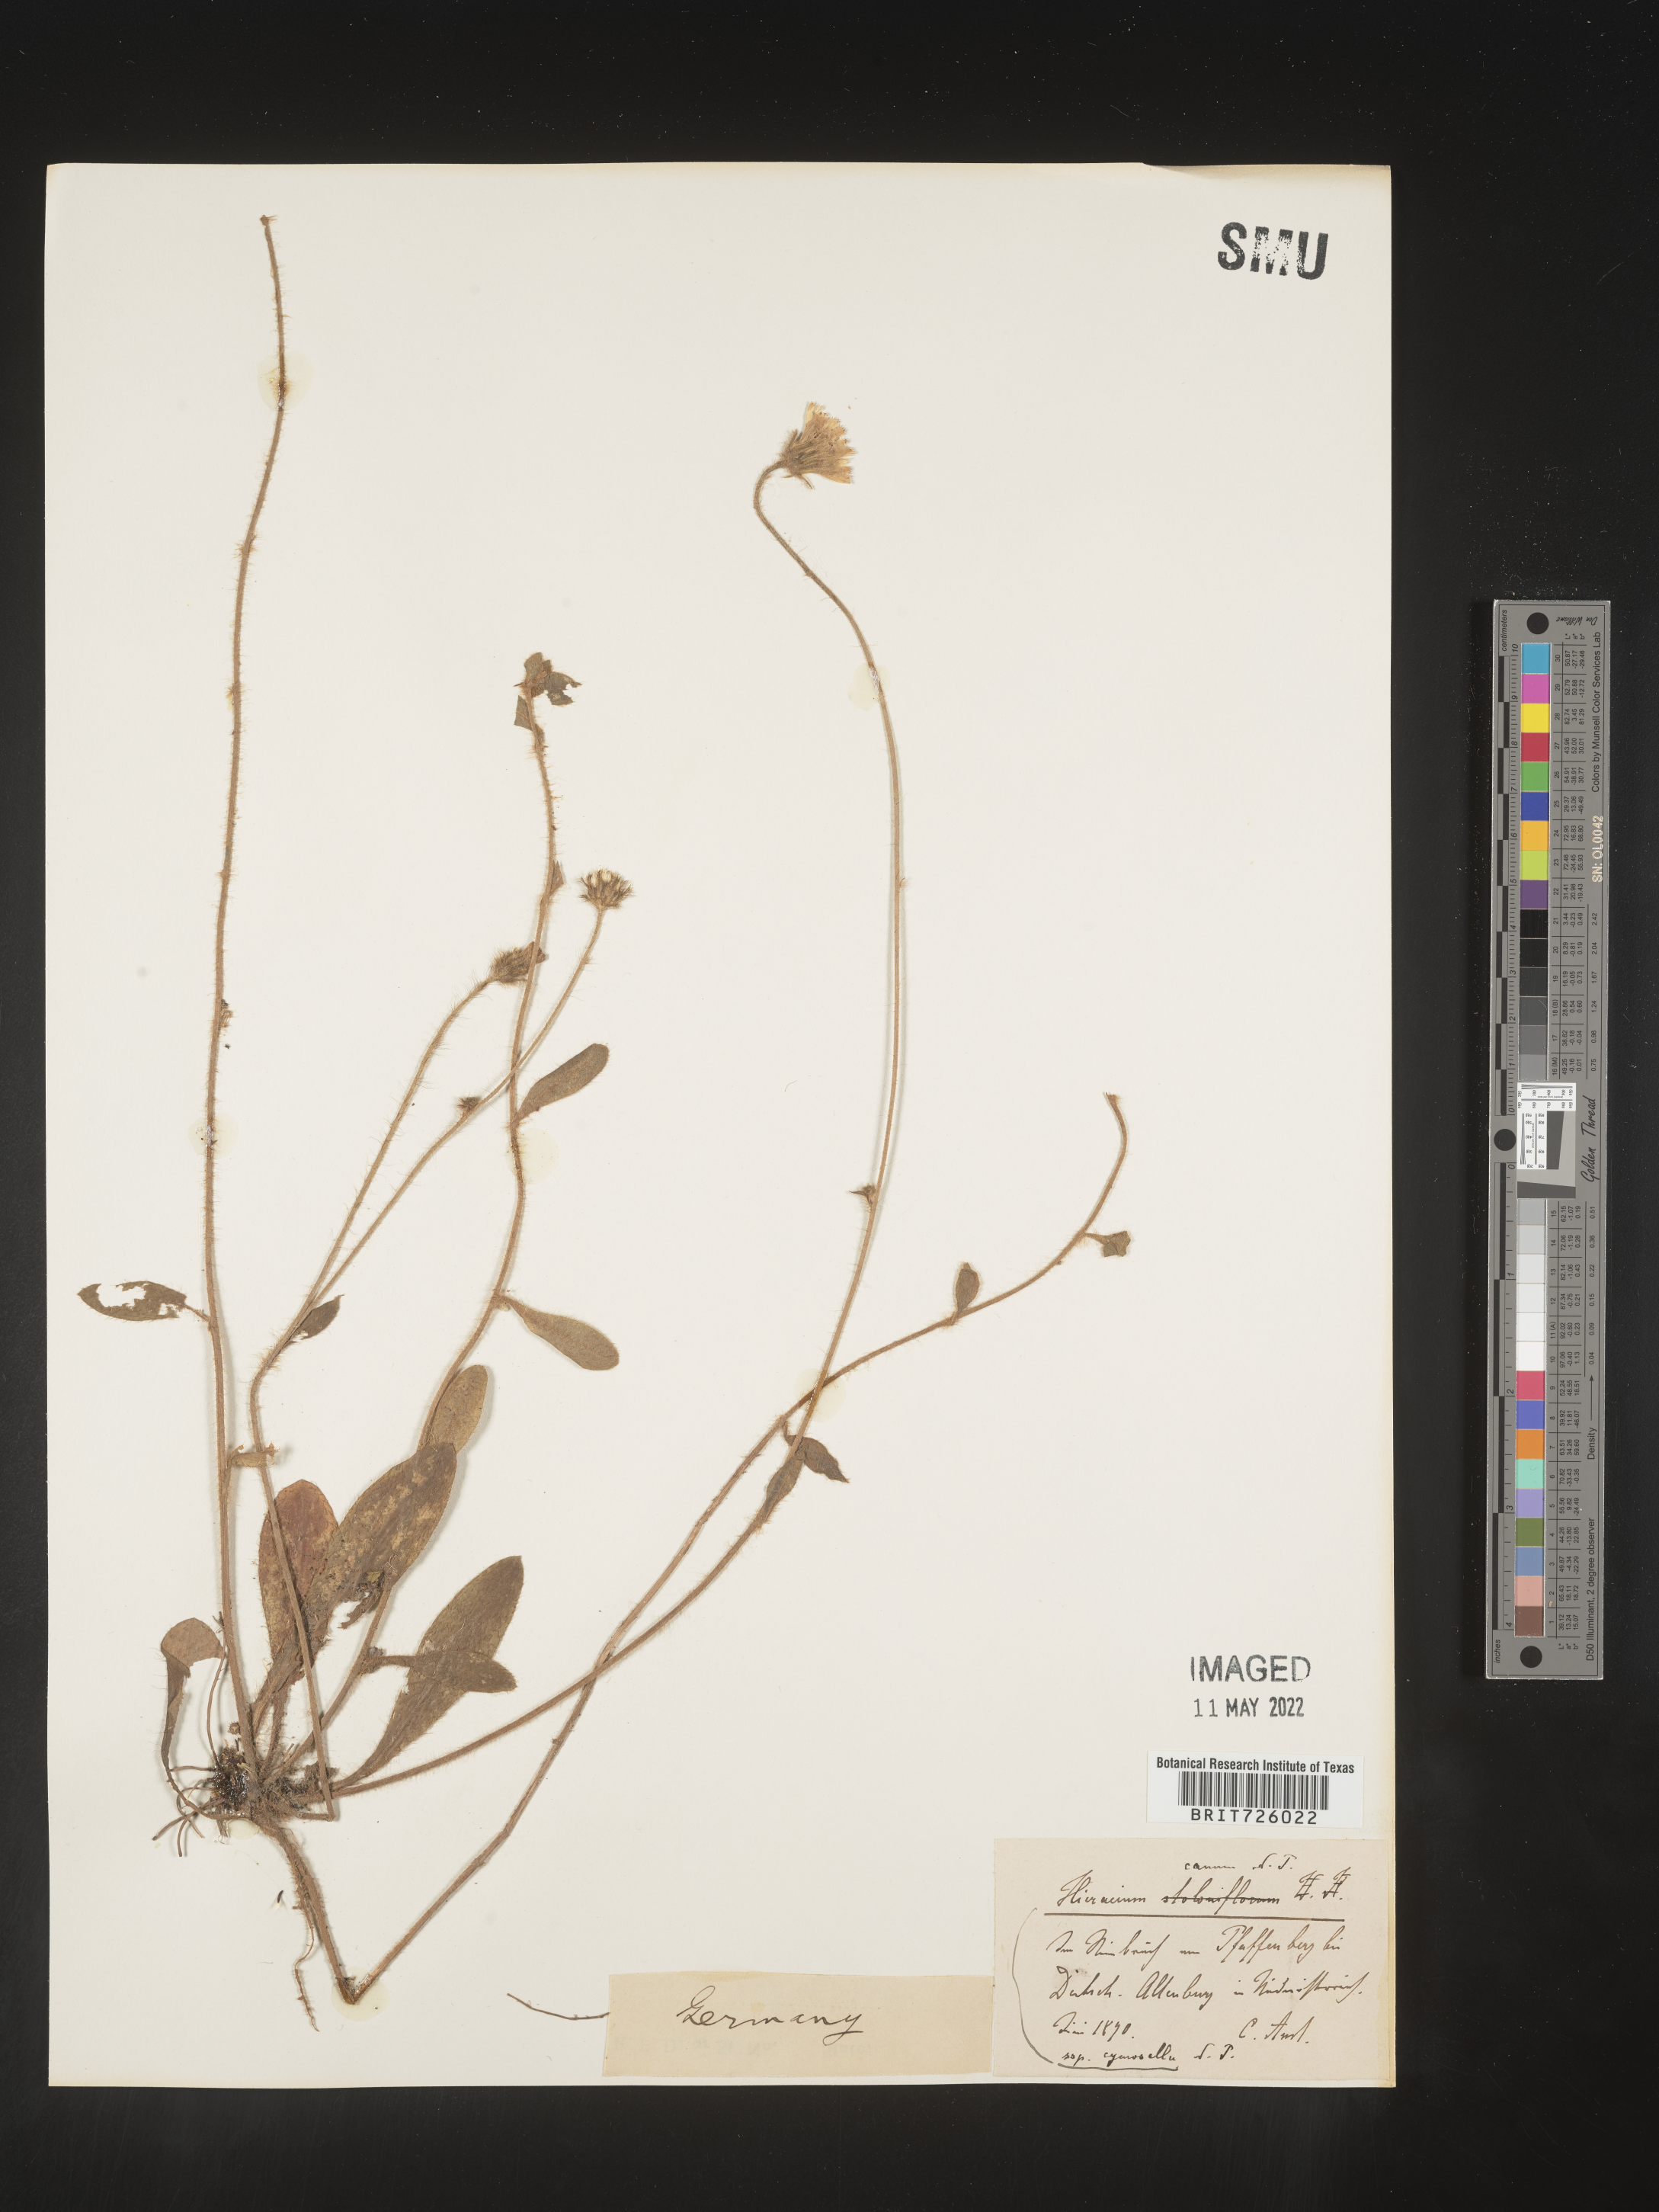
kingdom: Plantae
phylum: Tracheophyta
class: Magnoliopsida
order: Asterales
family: Asteraceae
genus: Hieracium
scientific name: Hieracium
